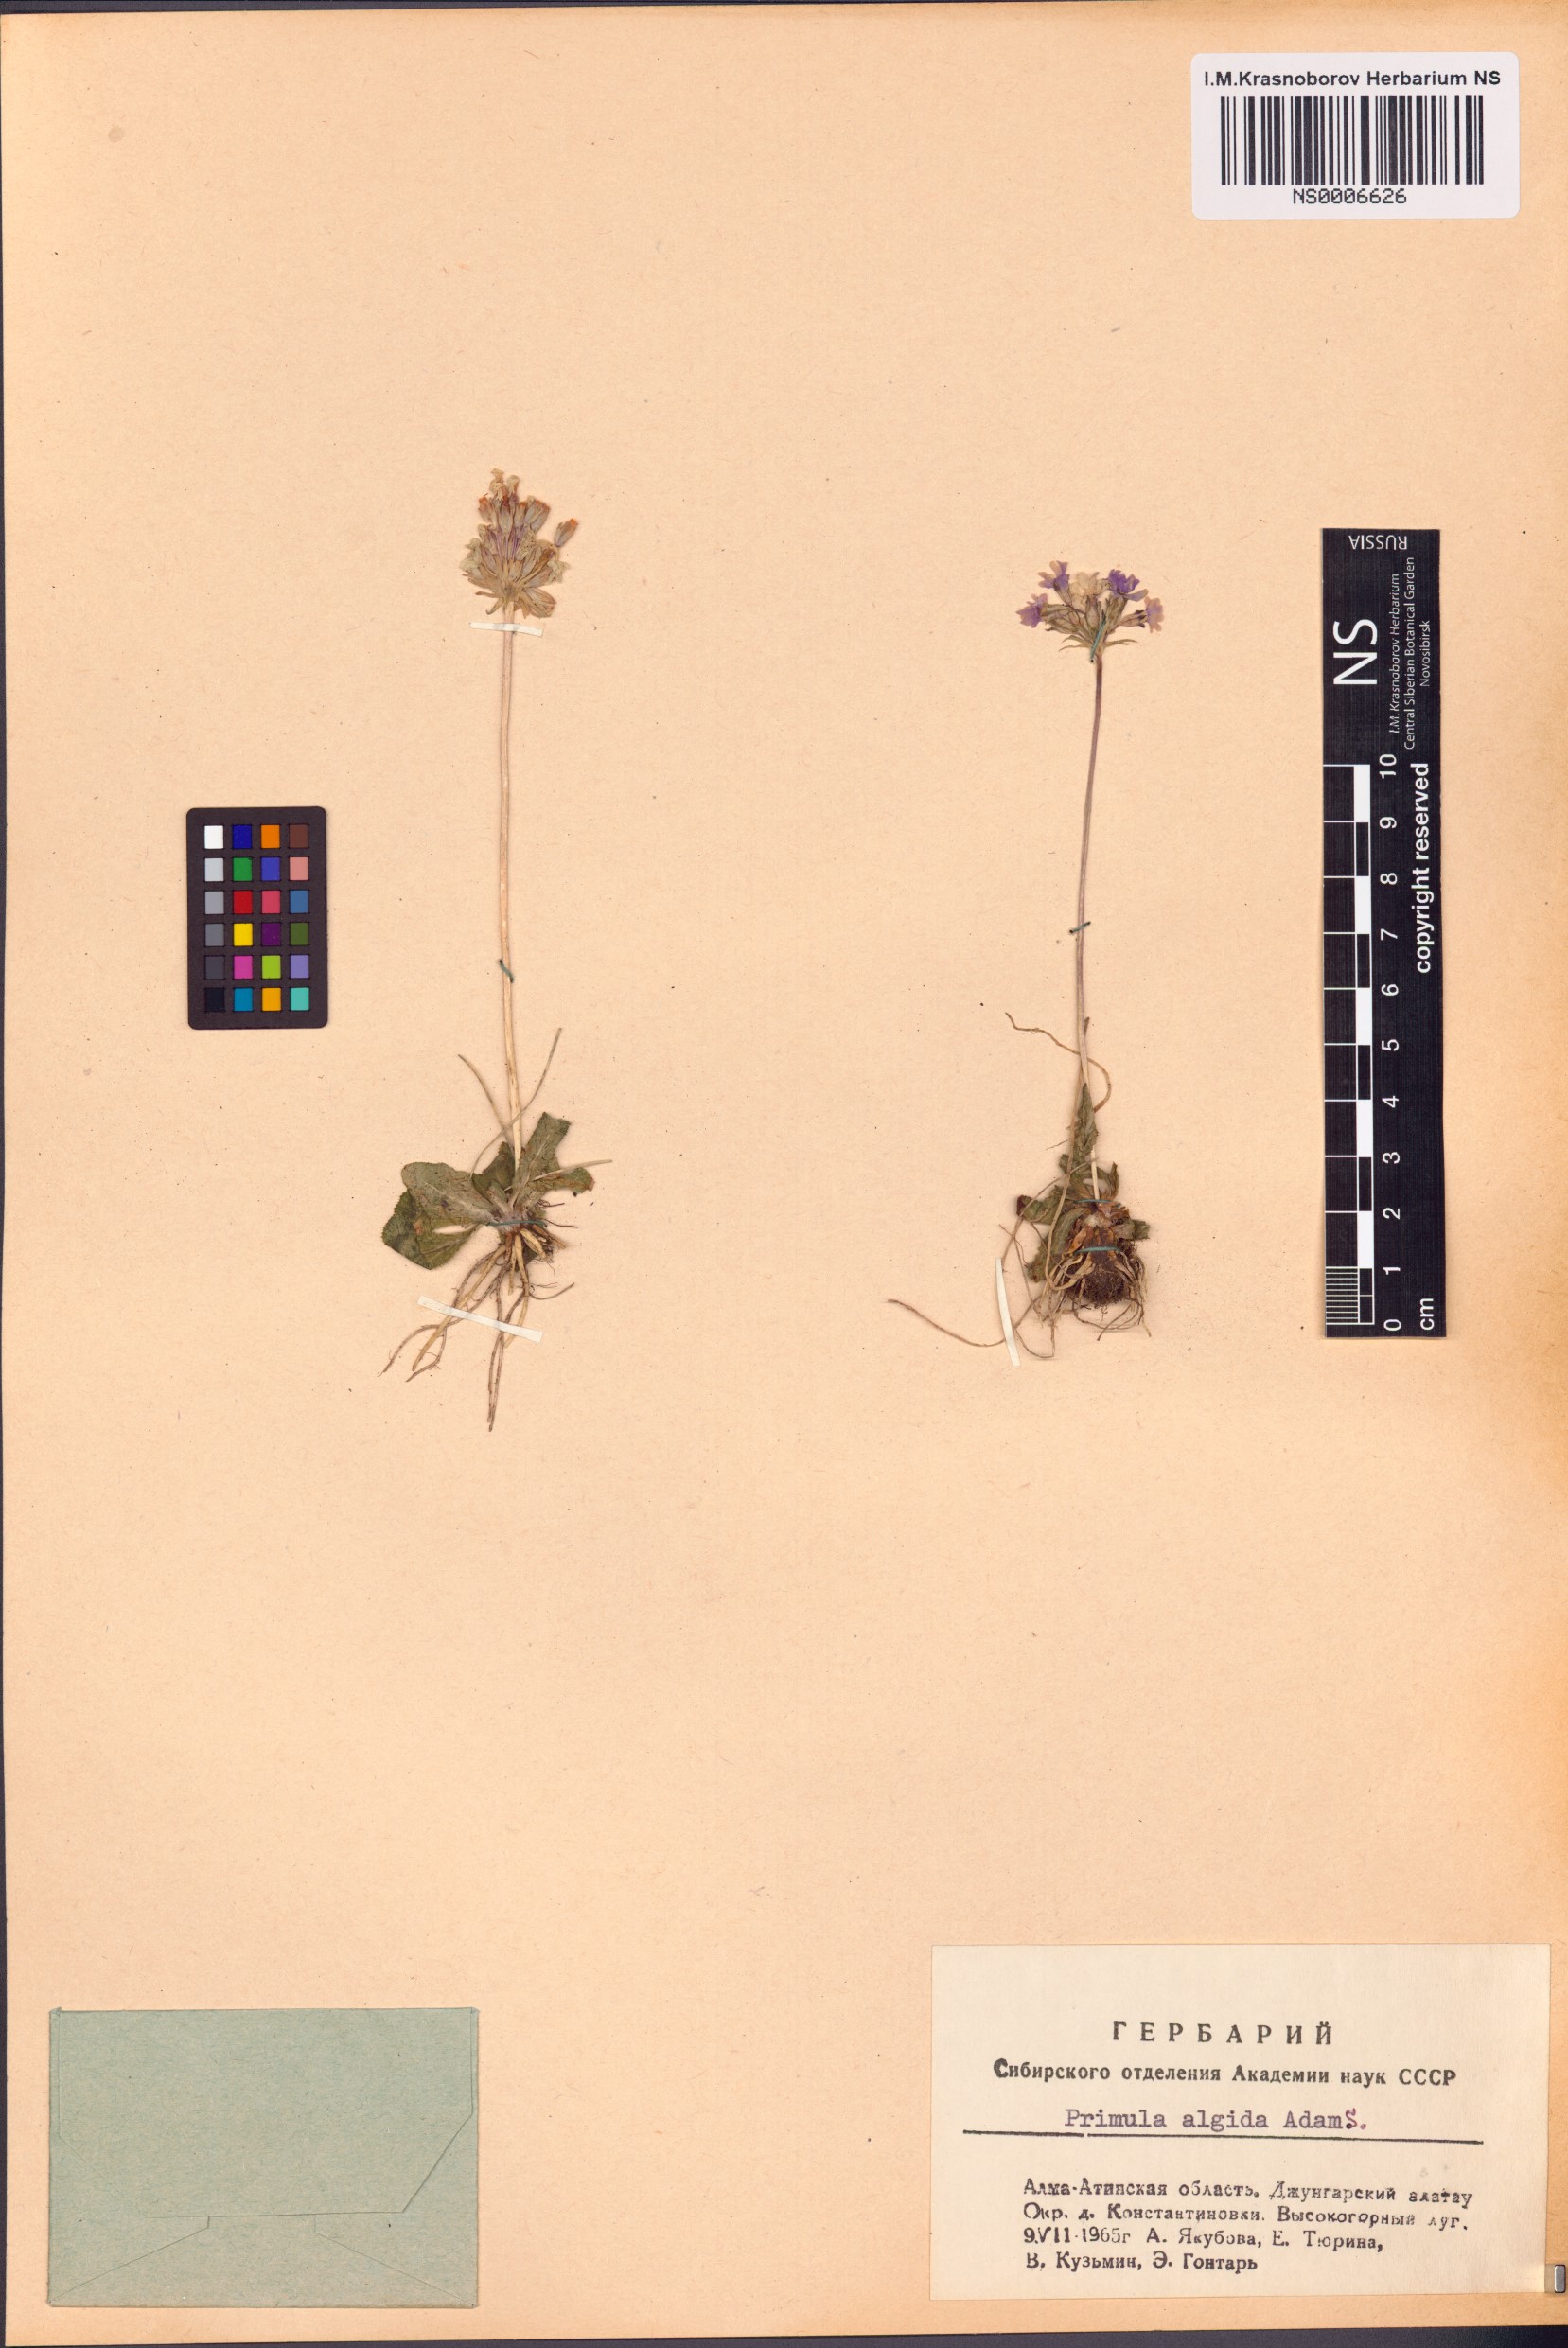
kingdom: Plantae
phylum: Tracheophyta
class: Magnoliopsida
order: Ericales
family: Primulaceae
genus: Primula
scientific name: Primula algida
